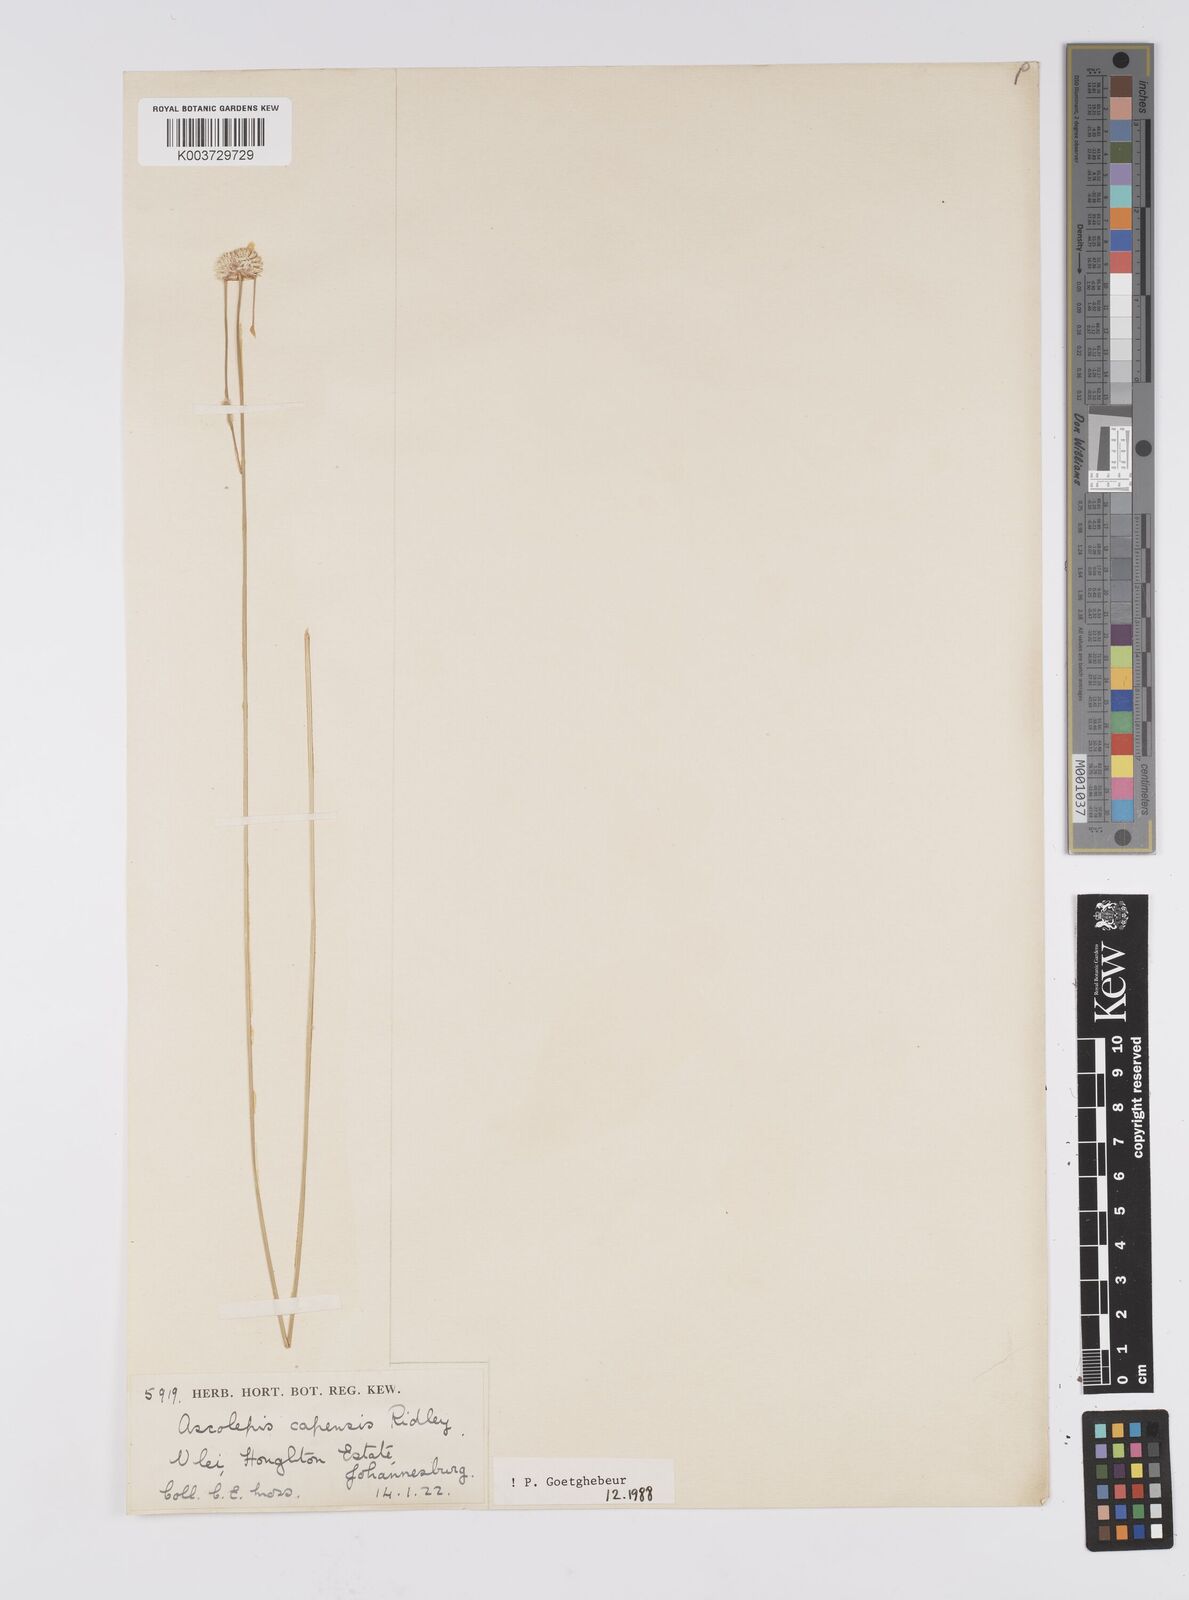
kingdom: Plantae
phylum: Tracheophyta
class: Liliopsida
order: Poales
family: Cyperaceae
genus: Cyperus
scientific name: Cyperus capensis
